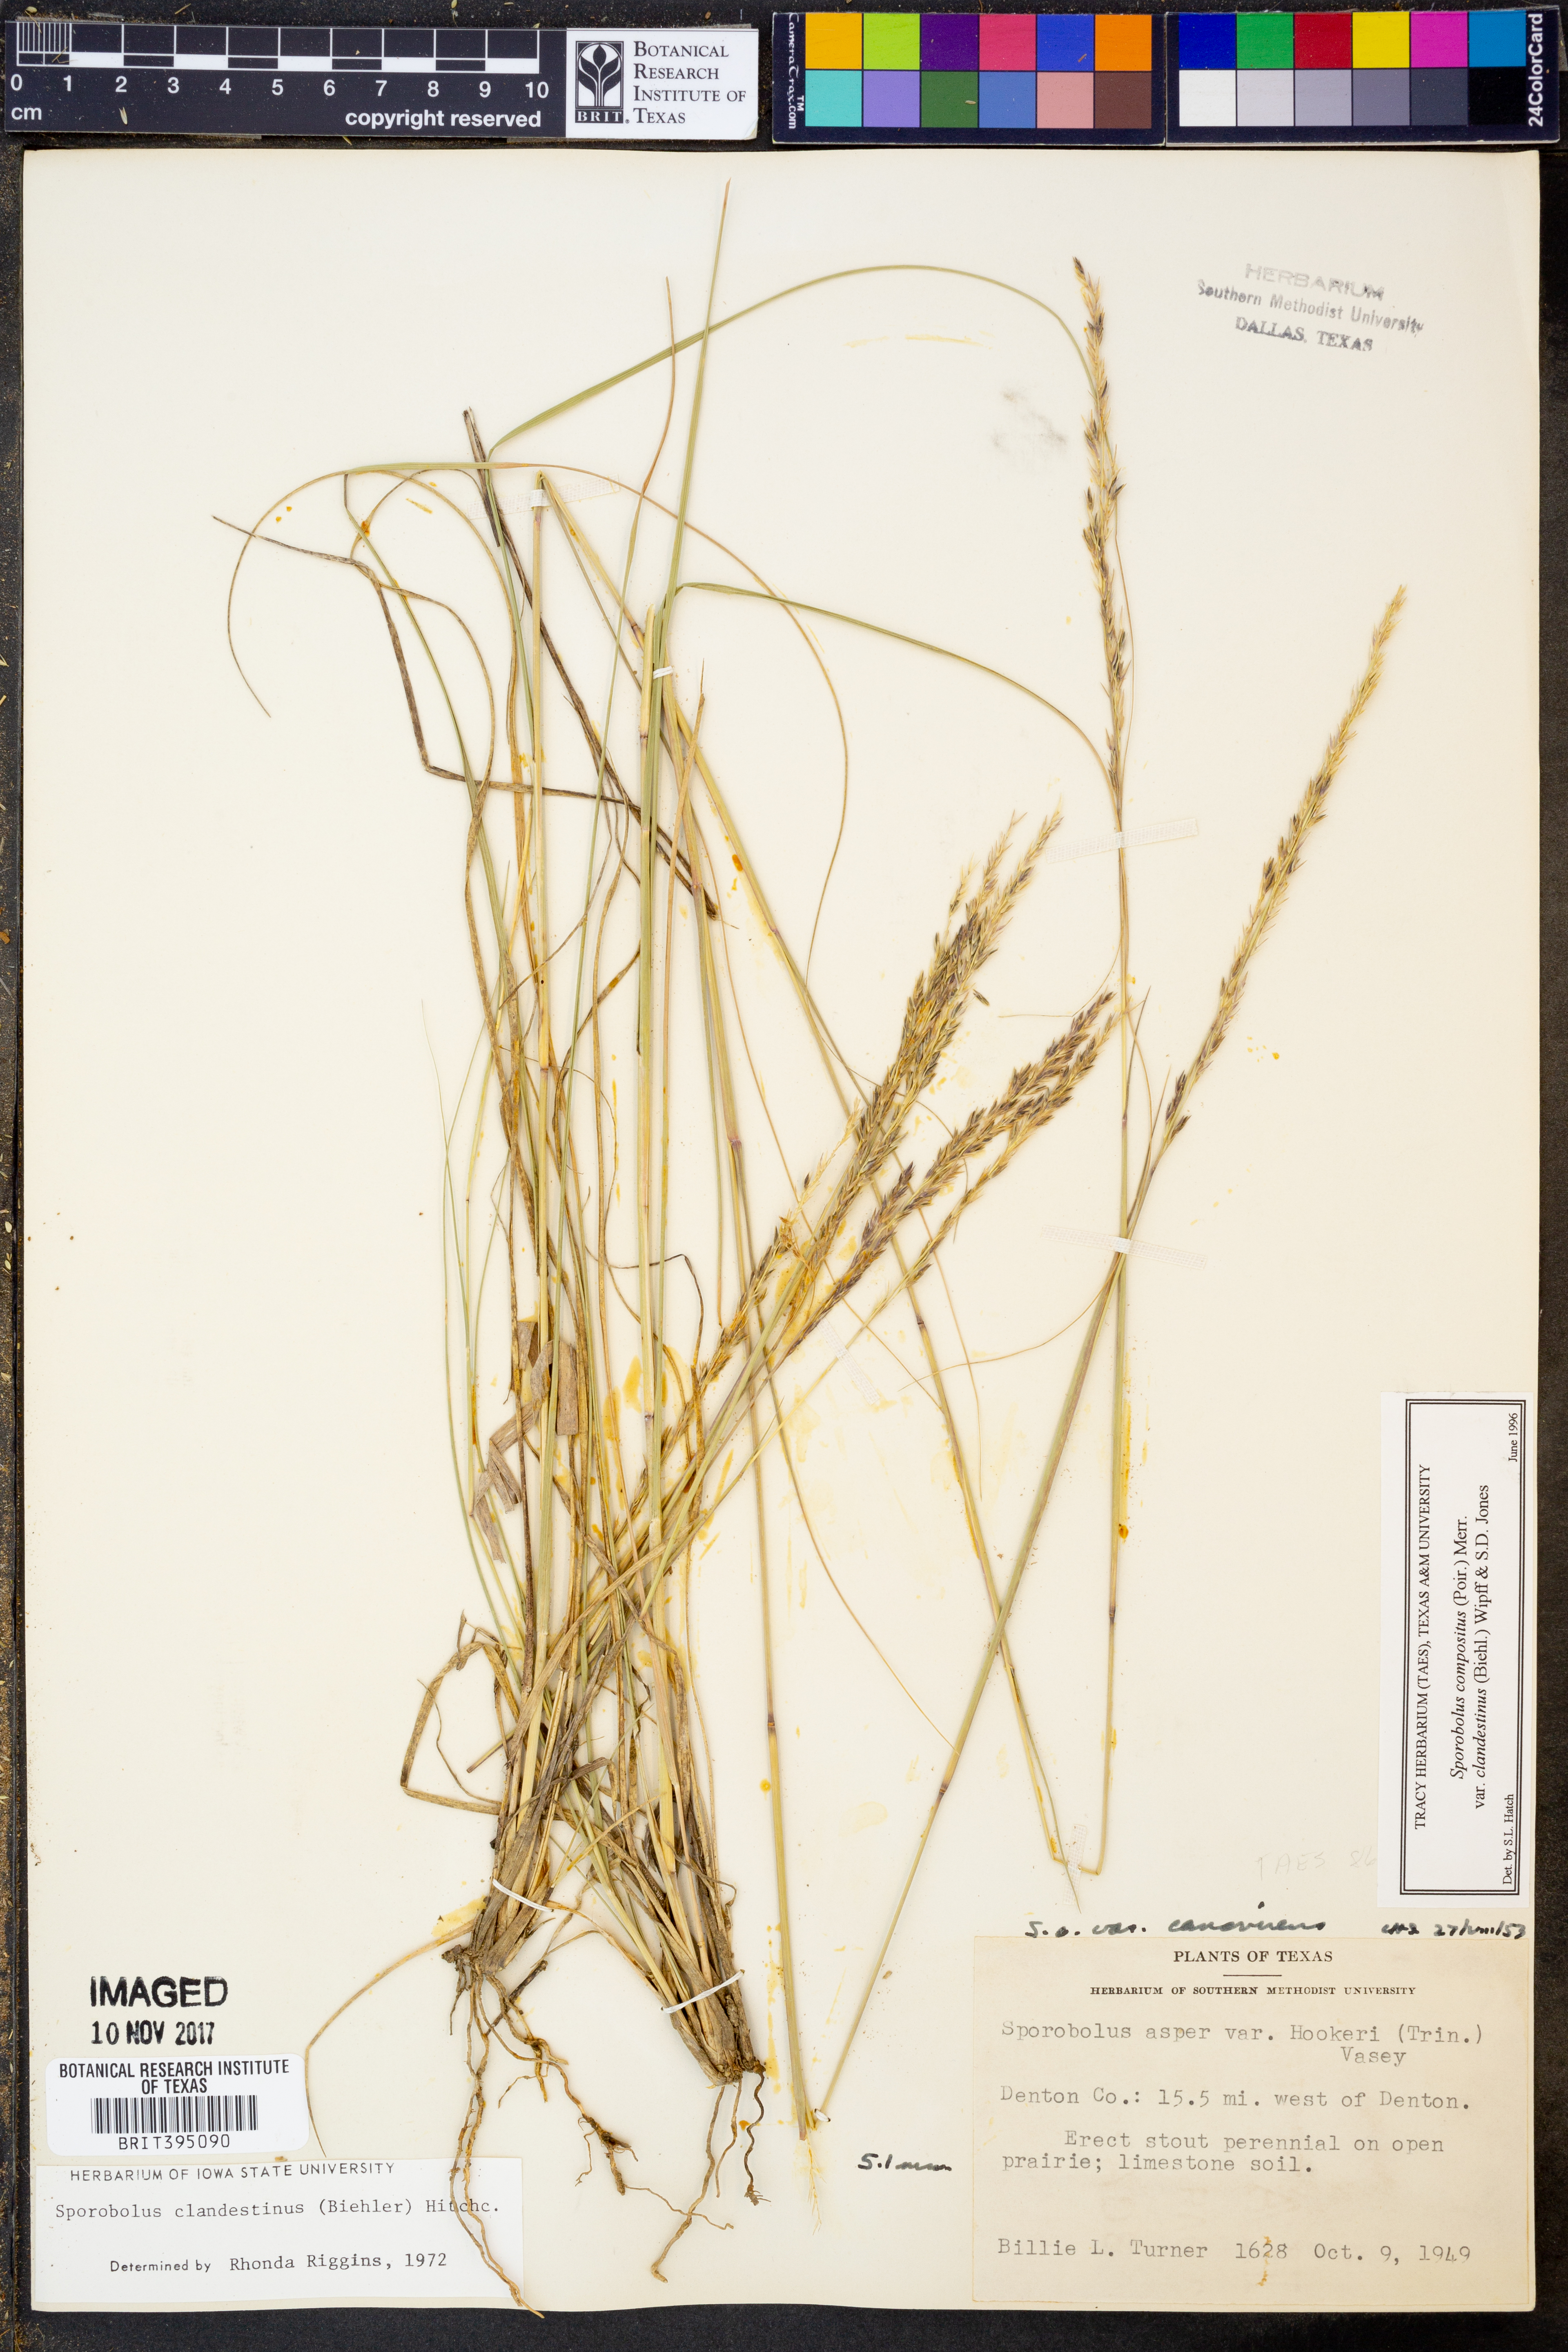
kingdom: Plantae
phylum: Tracheophyta
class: Liliopsida
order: Poales
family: Poaceae
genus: Sporobolus
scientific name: Sporobolus clandestinus
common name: Hidden dropseed
